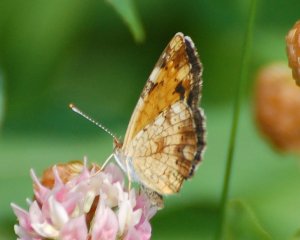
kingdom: Animalia
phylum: Arthropoda
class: Insecta
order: Lepidoptera
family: Nymphalidae
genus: Phyciodes
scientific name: Phyciodes tharos
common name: Northern Crescent
